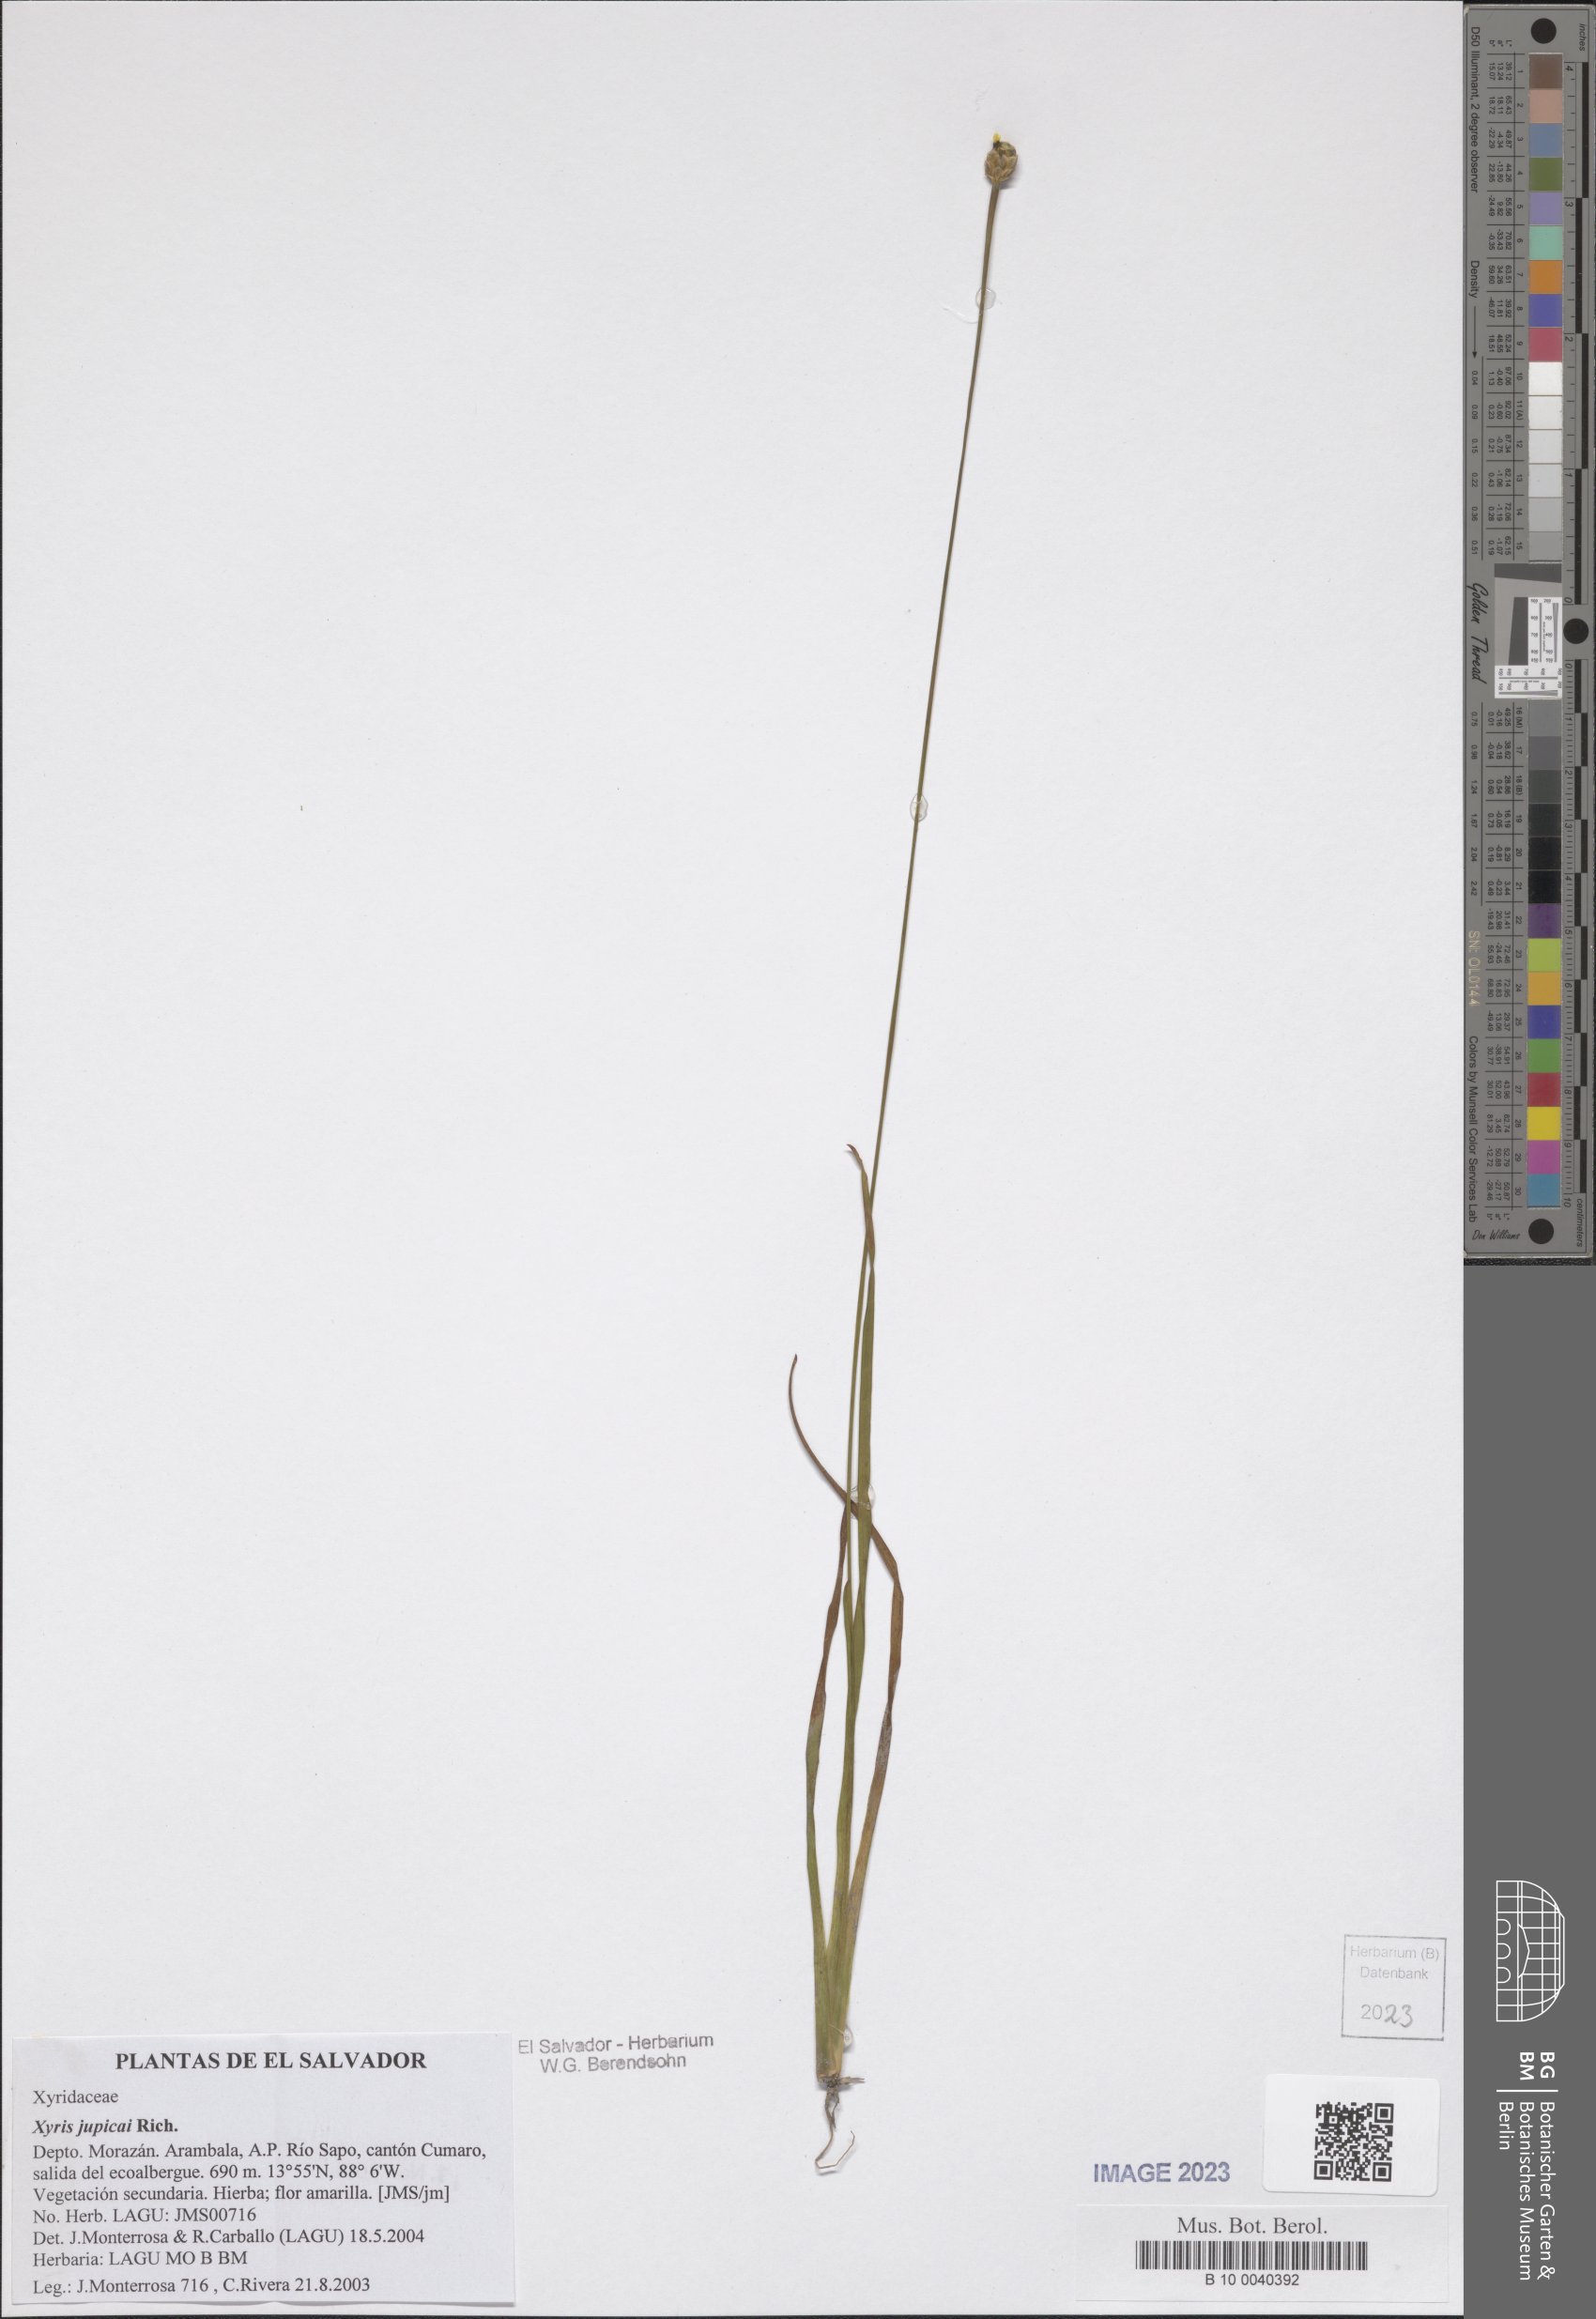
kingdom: Plantae
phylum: Tracheophyta
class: Liliopsida
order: Poales
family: Xyridaceae
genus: Xyris
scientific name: Xyris jupicai
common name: Richard's yelloweyed grass
